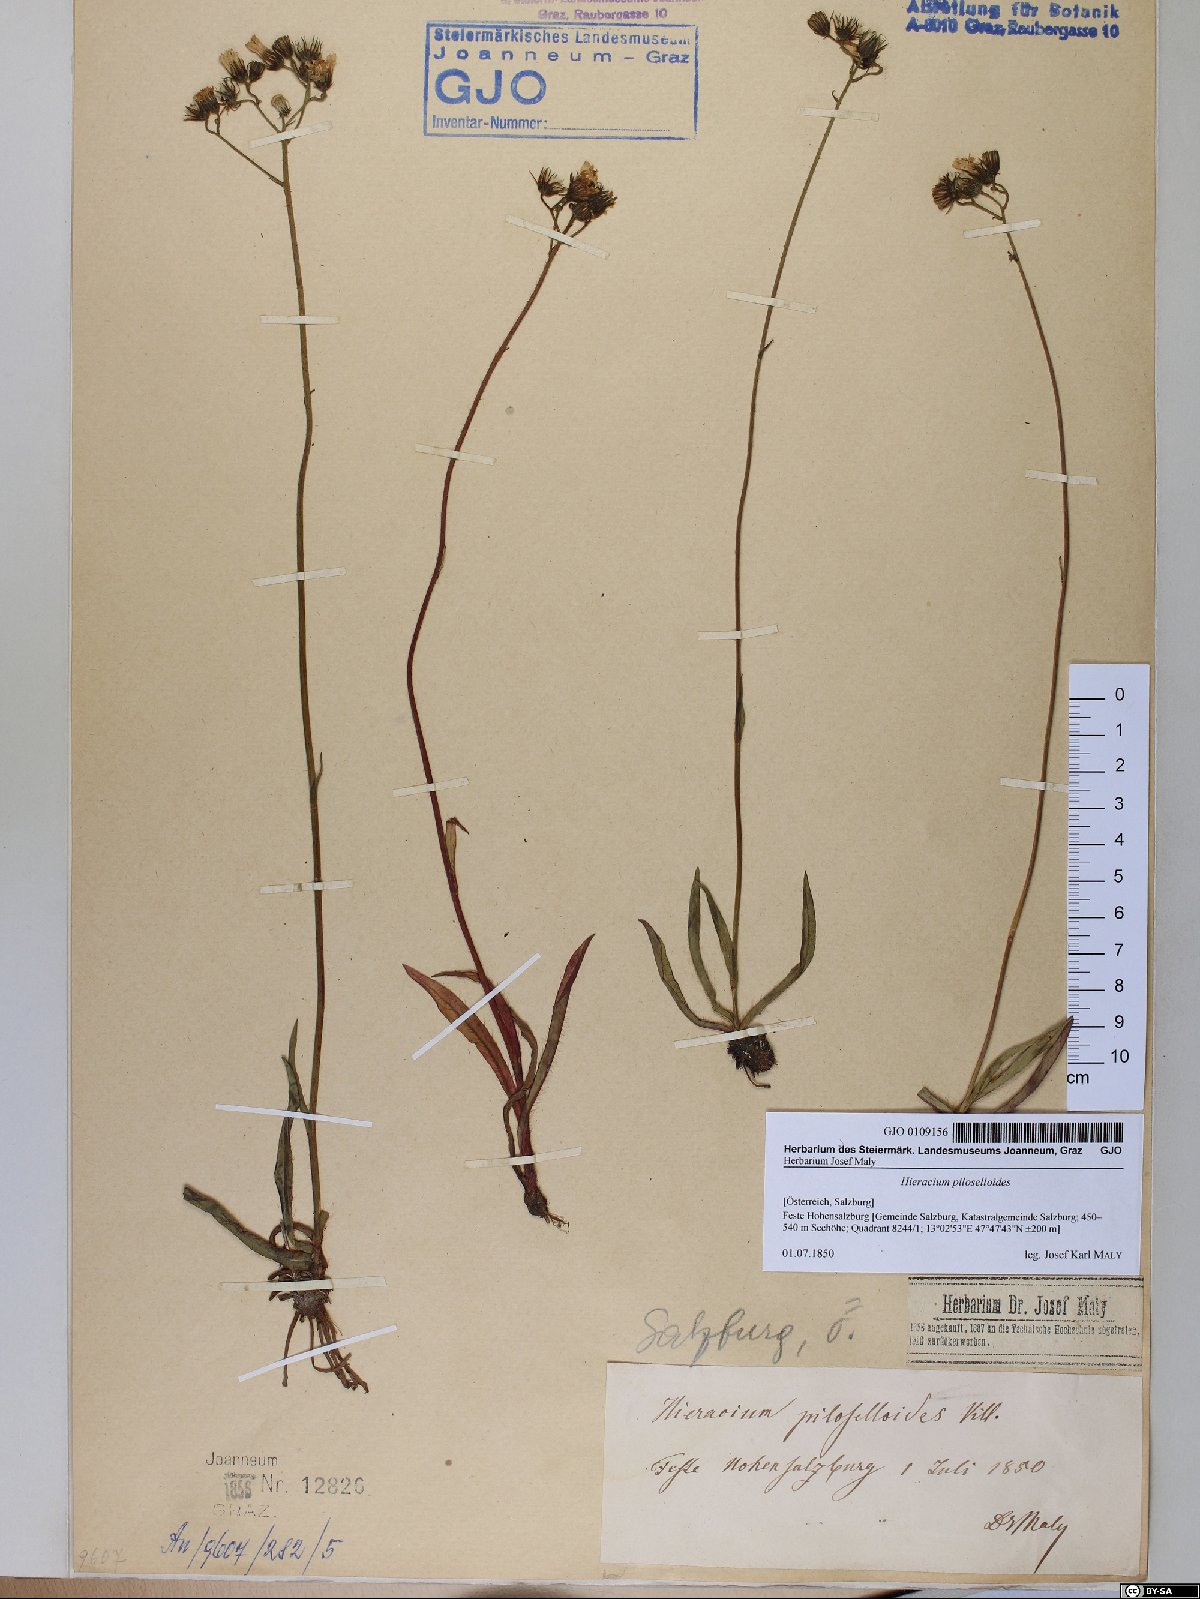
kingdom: Plantae
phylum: Tracheophyta
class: Magnoliopsida
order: Asterales
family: Asteraceae
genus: Pilosella
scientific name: Pilosella piloselloides
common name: Glaucous king-devil
